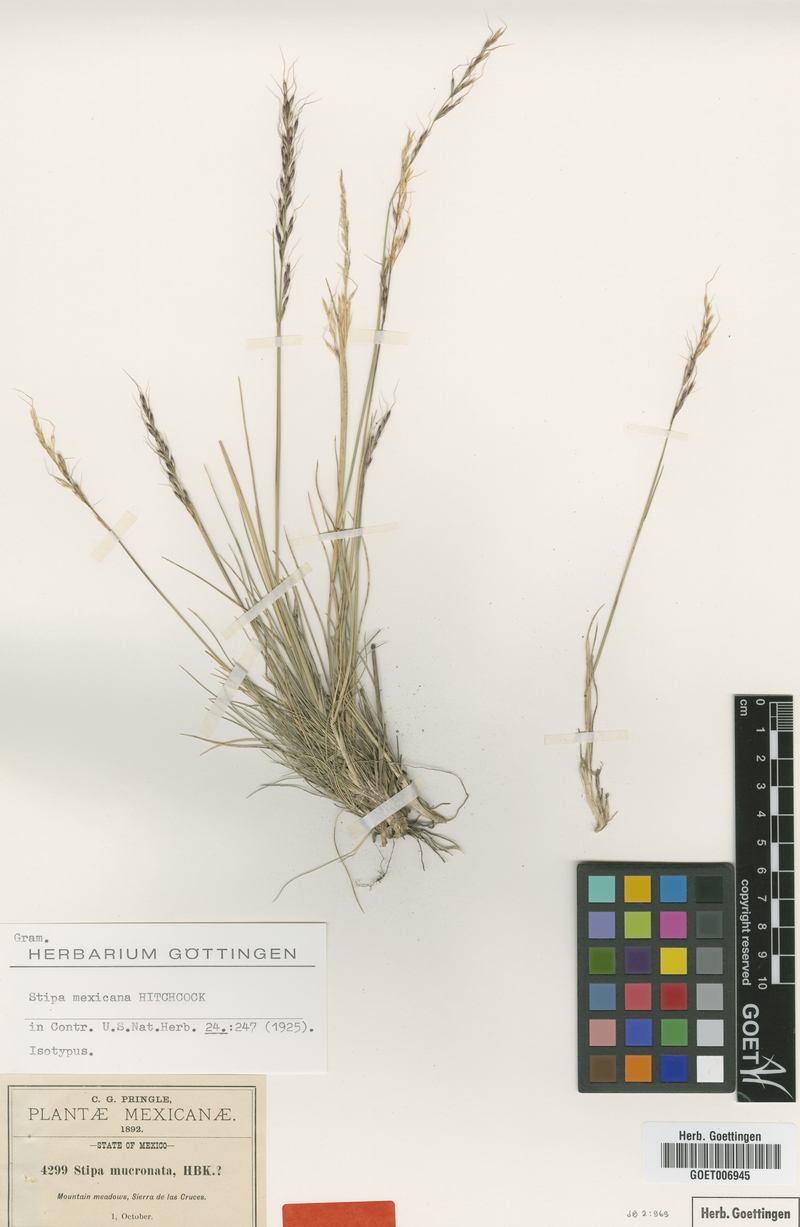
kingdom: Plantae
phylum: Tracheophyta
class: Liliopsida
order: Poales
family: Poaceae
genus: Nassella
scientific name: Nassella mexicana
